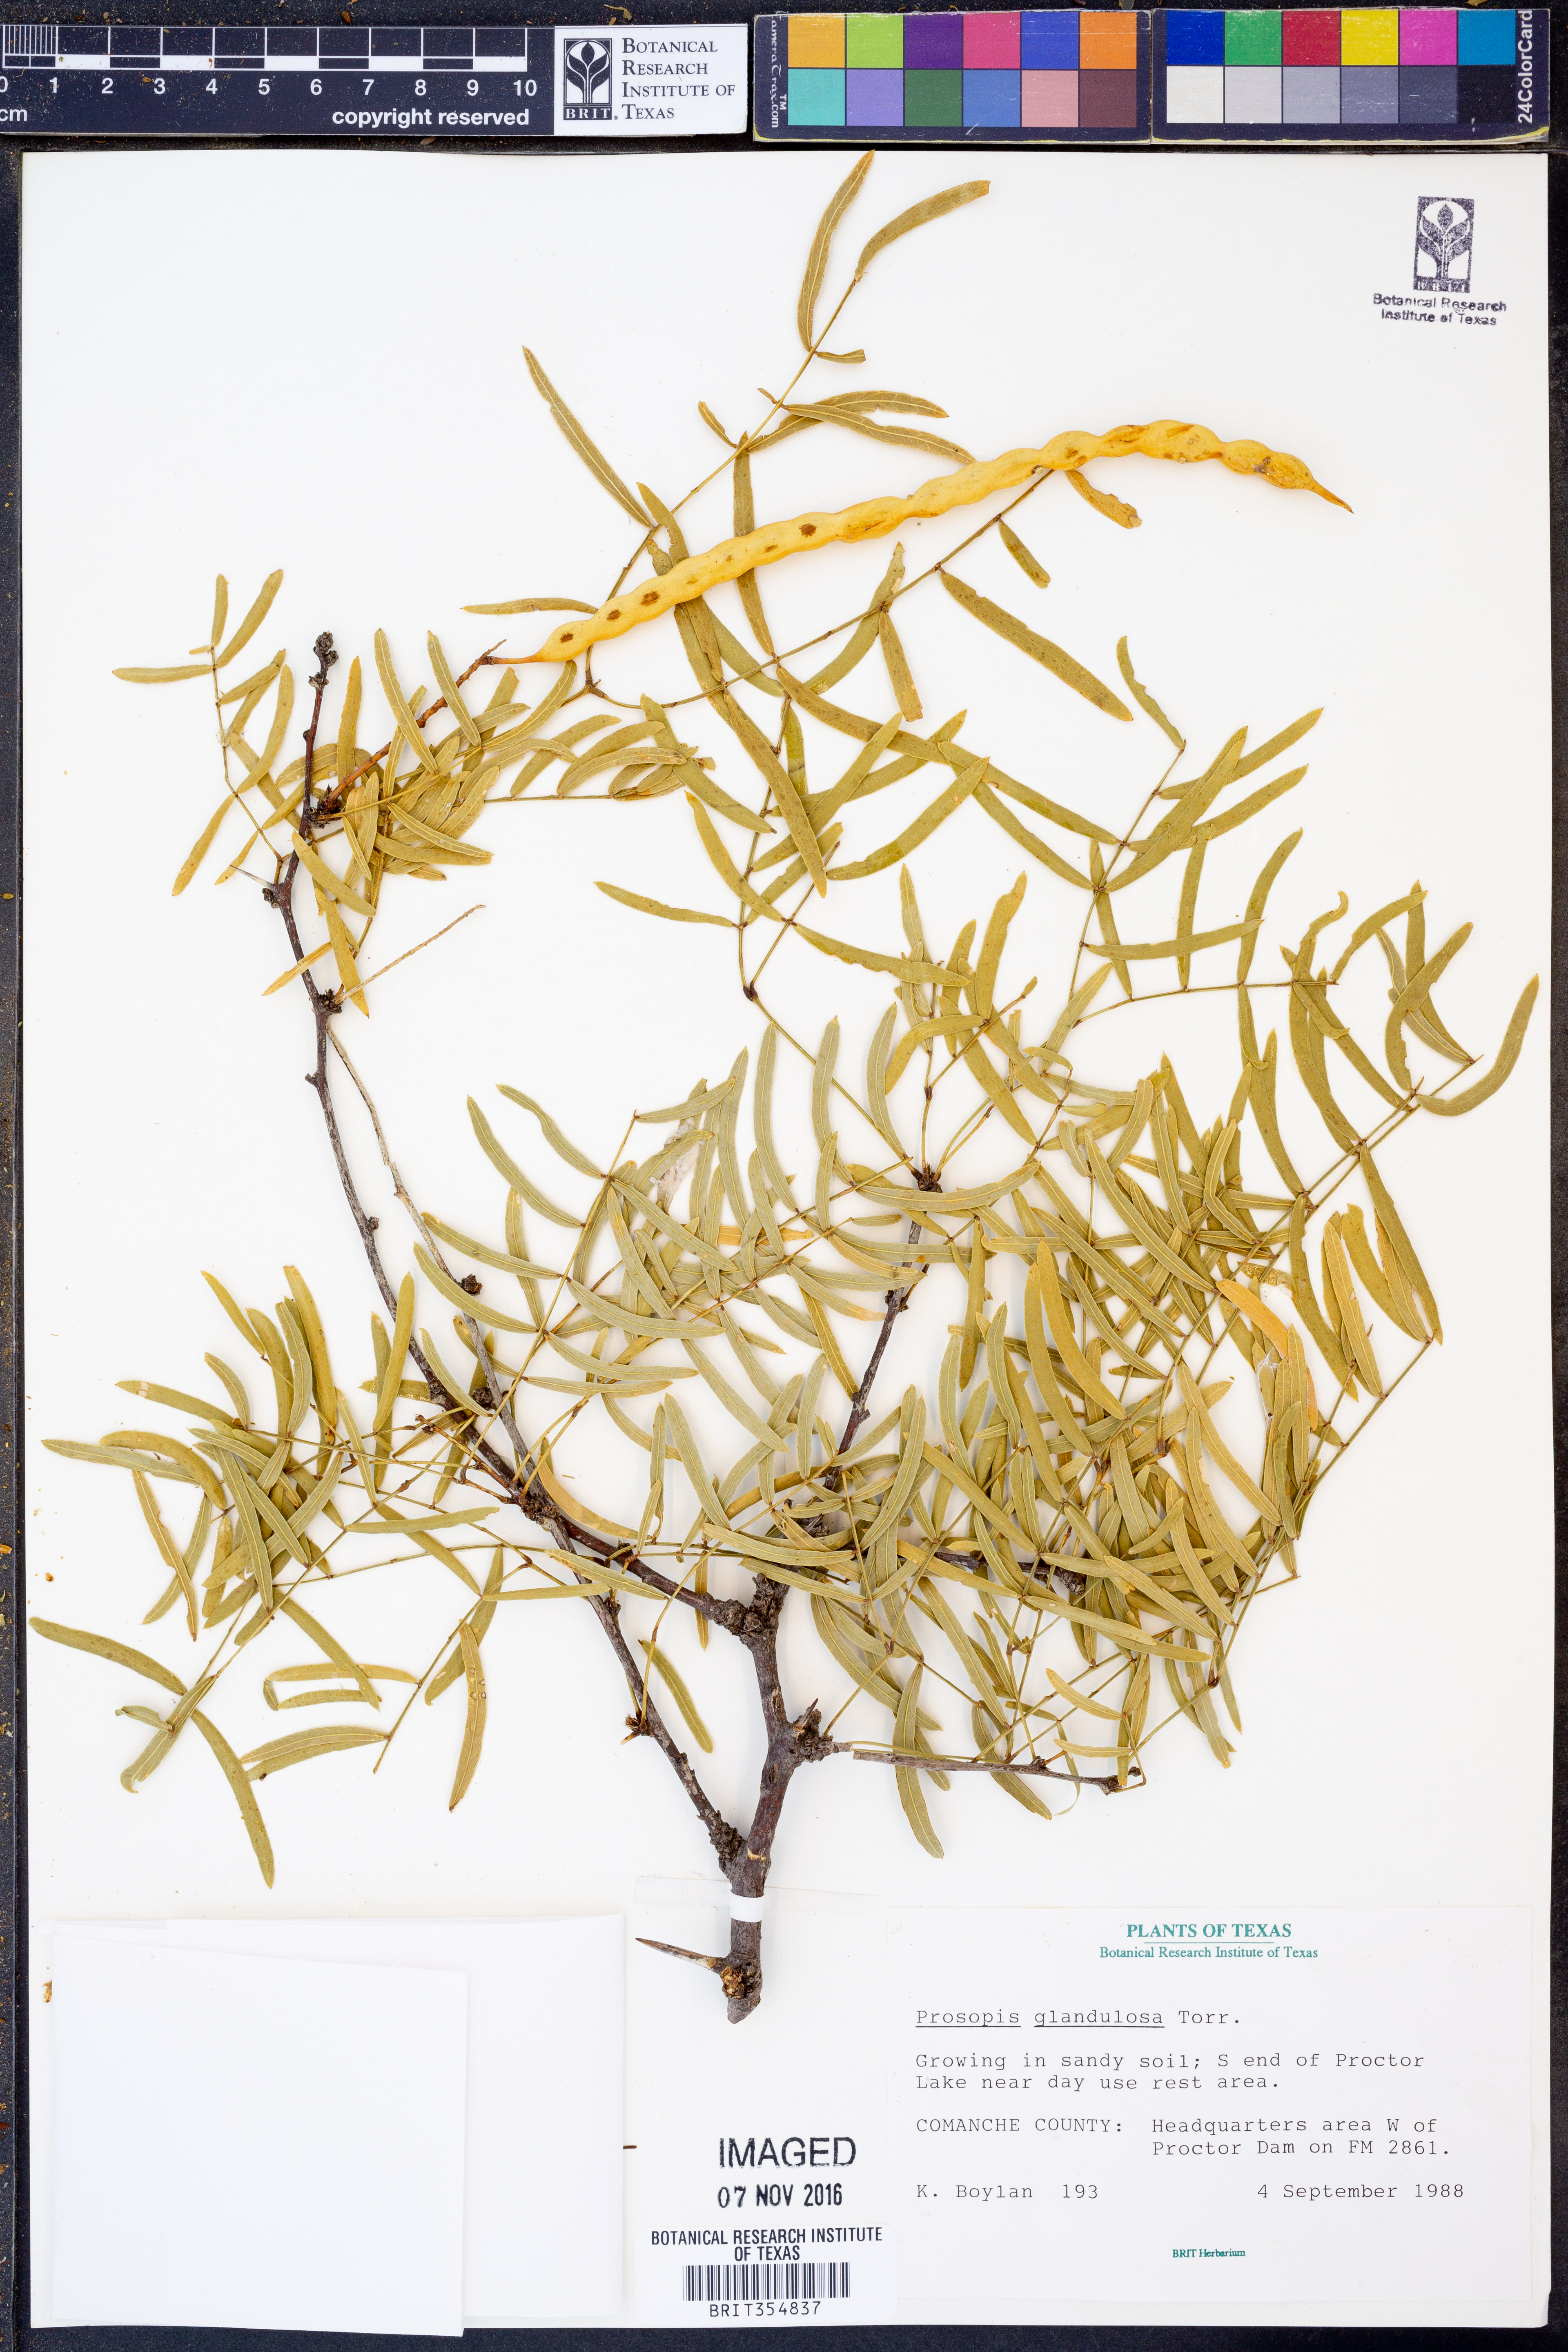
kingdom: Plantae
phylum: Tracheophyta
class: Magnoliopsida
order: Fabales
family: Fabaceae
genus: Prosopis
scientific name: Prosopis glandulosa
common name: Honey mesquite
